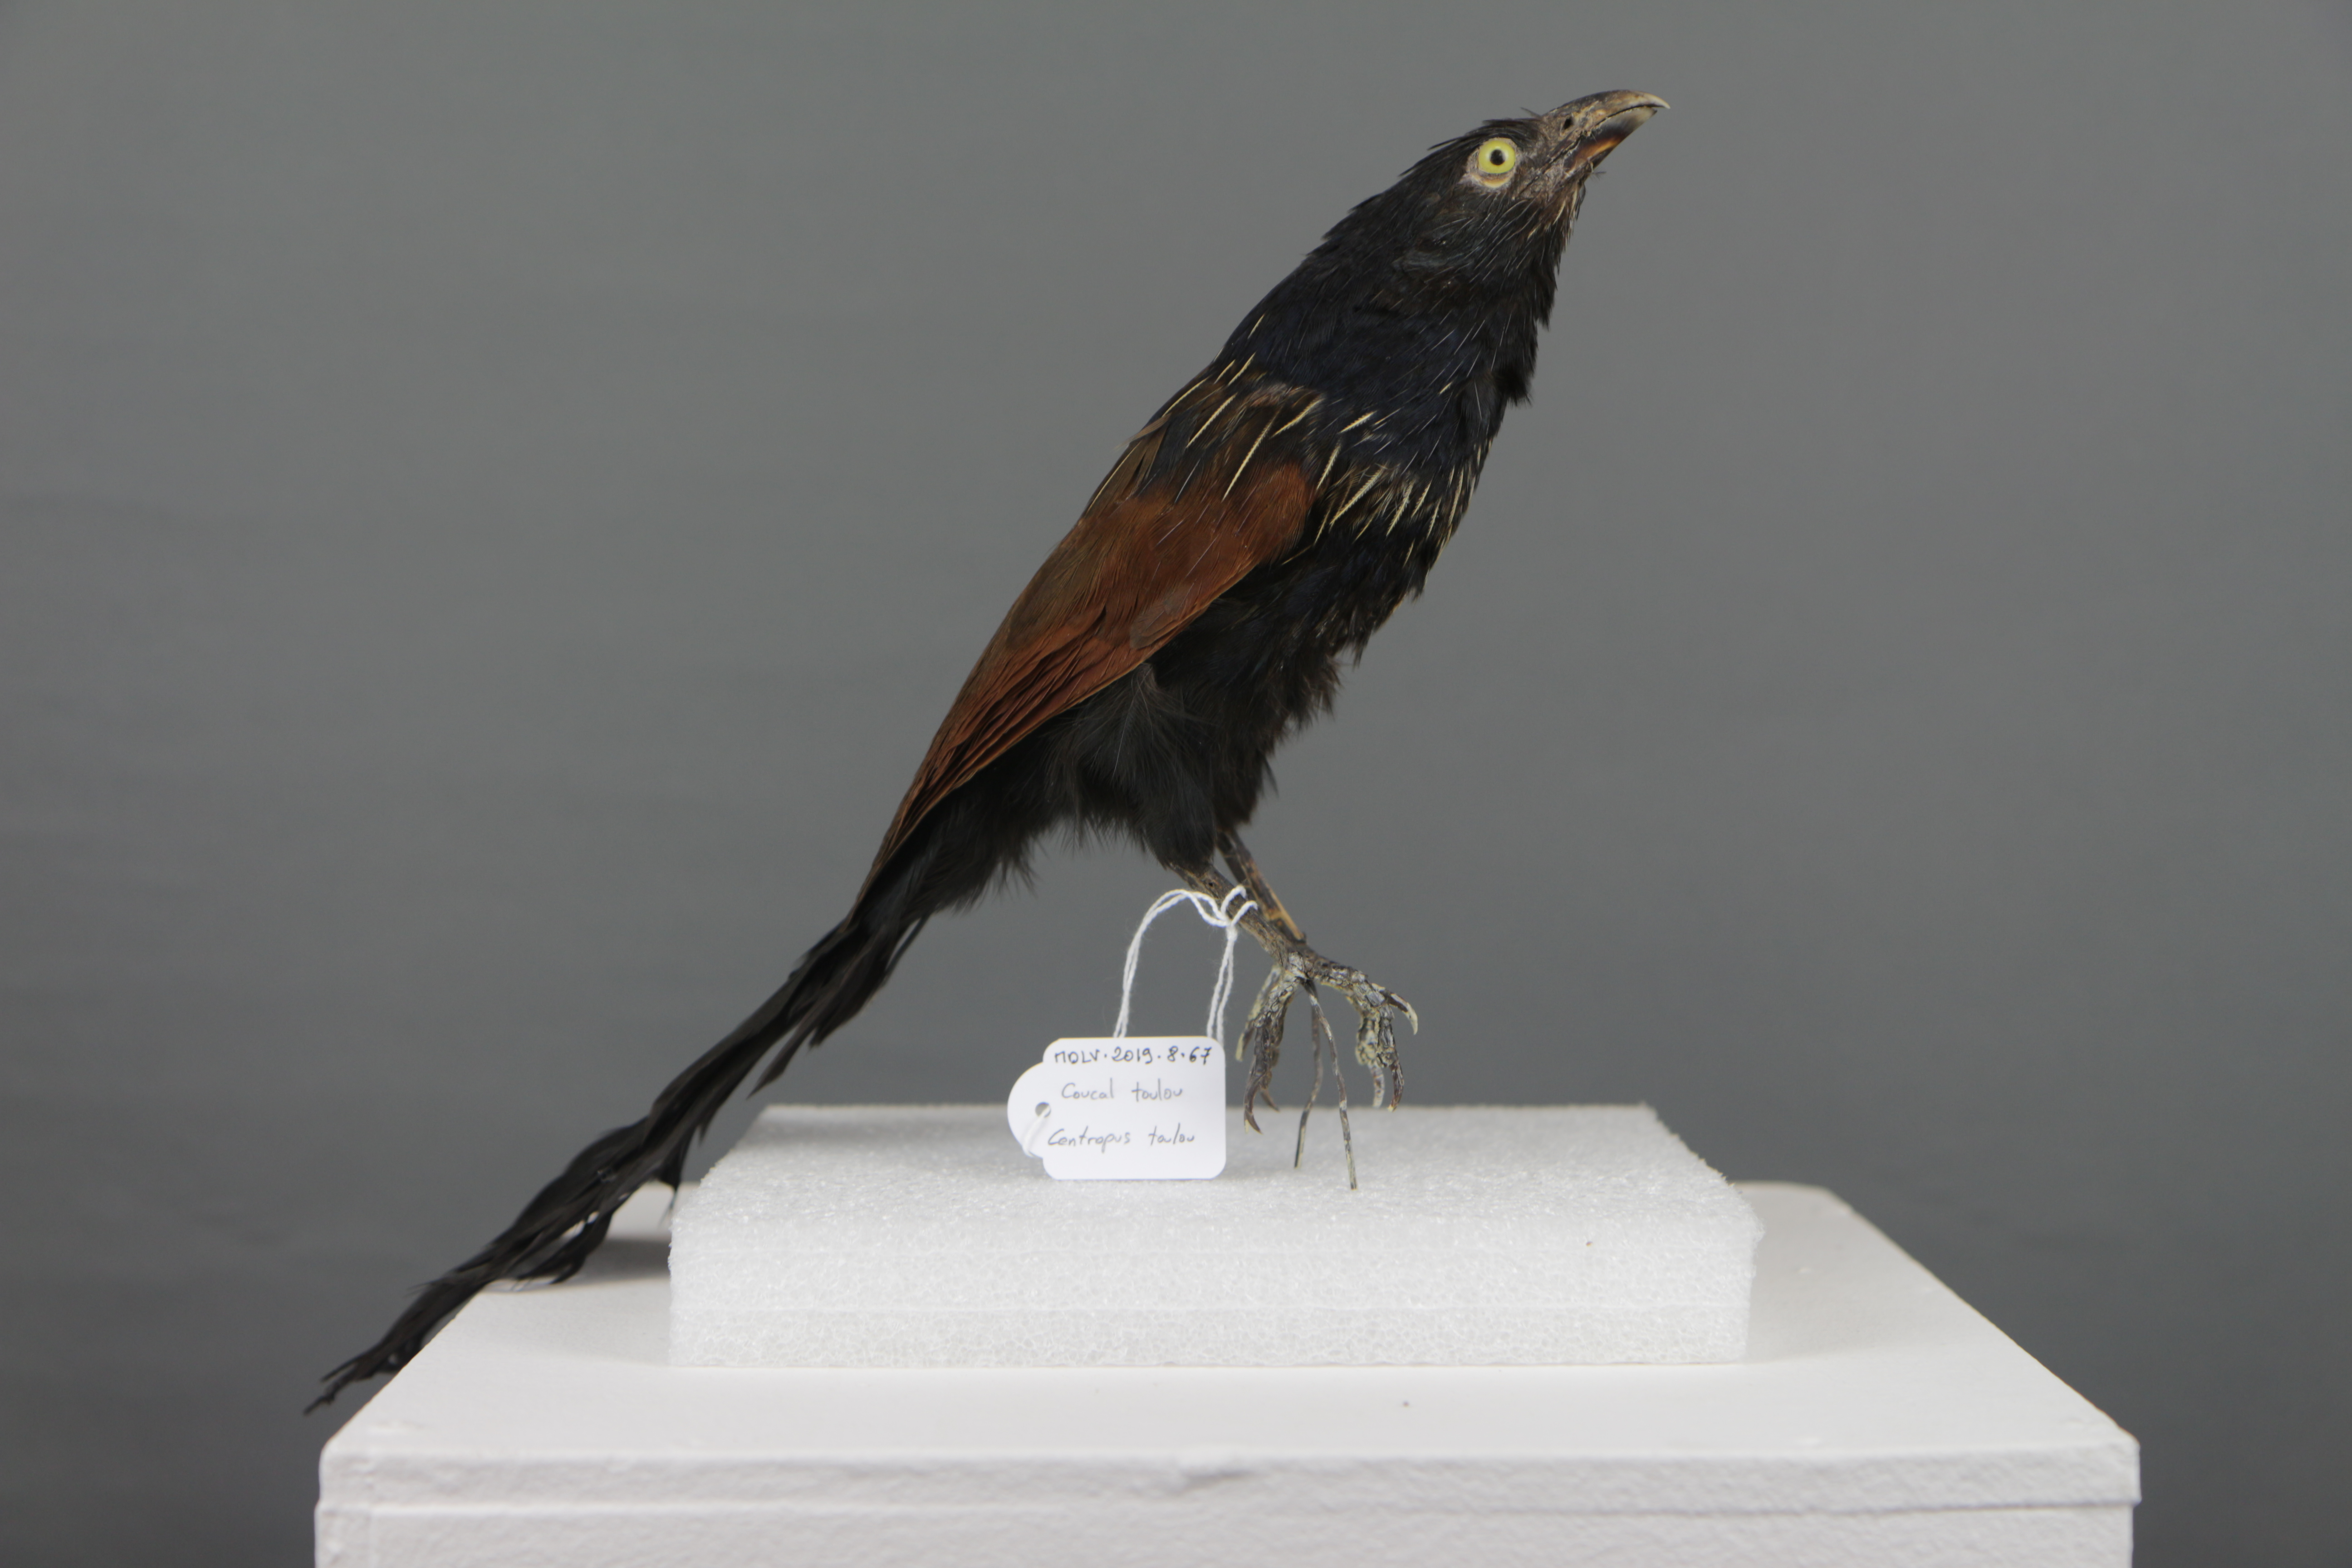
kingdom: Animalia
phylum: Chordata
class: Aves
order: Cuculiformes
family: Cuculidae
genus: Centropus
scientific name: Centropus toulou
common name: Malagasy coucal
